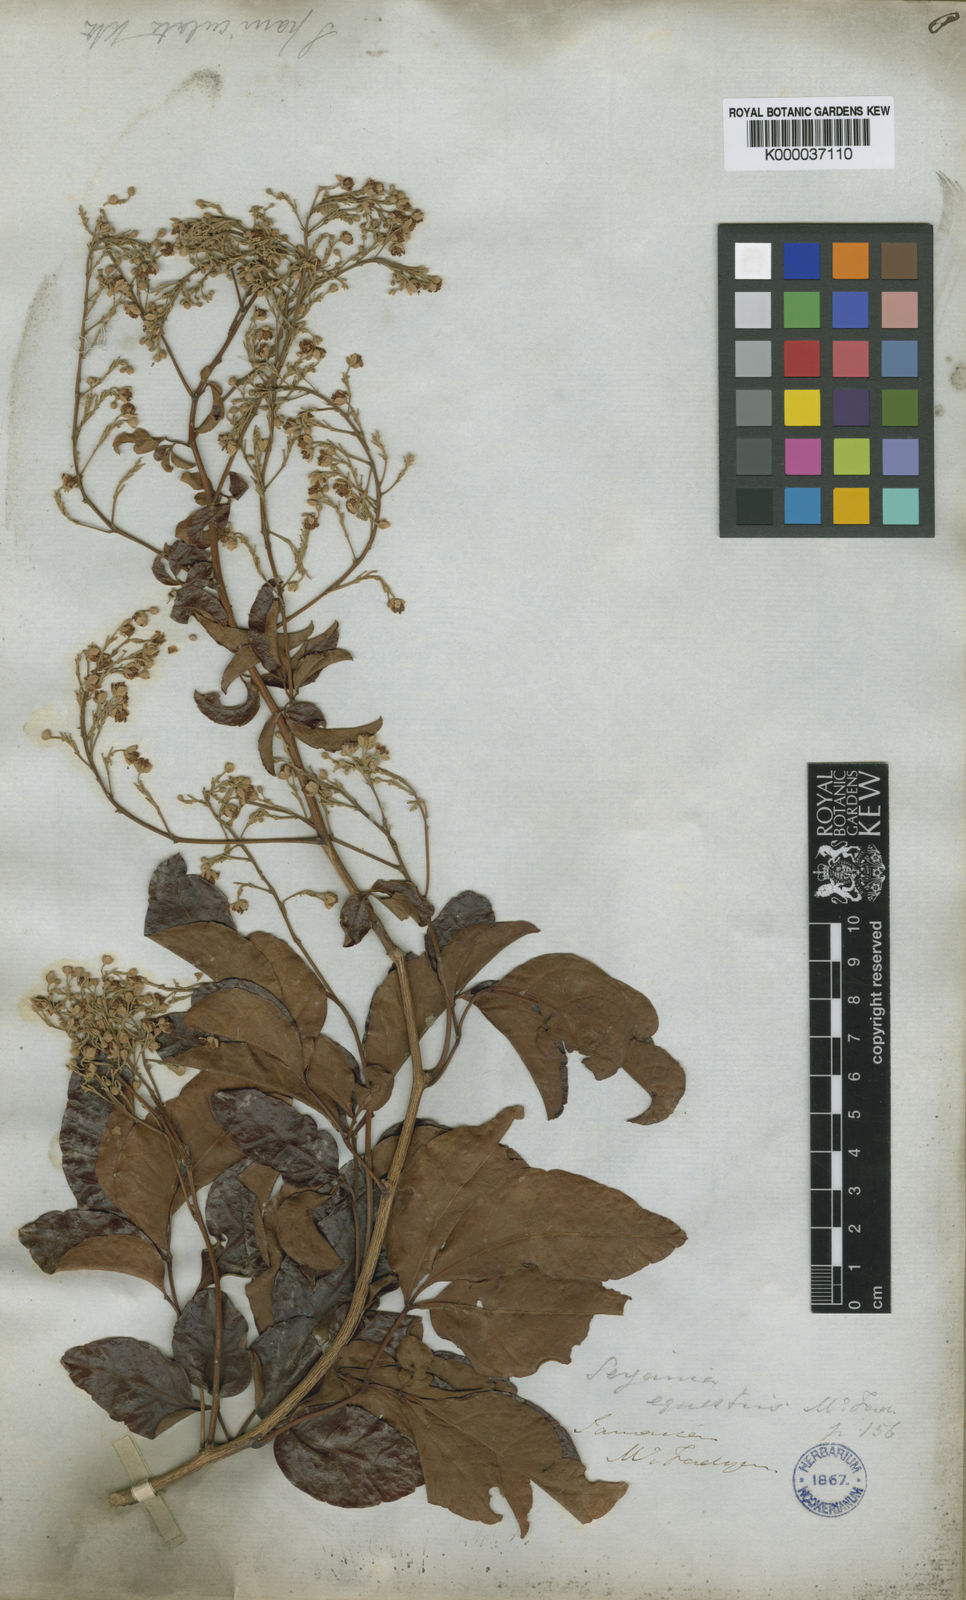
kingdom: Plantae
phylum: Tracheophyta
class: Magnoliopsida
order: Sapindales
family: Sapindaceae
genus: Serjania
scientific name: Serjania equestris
